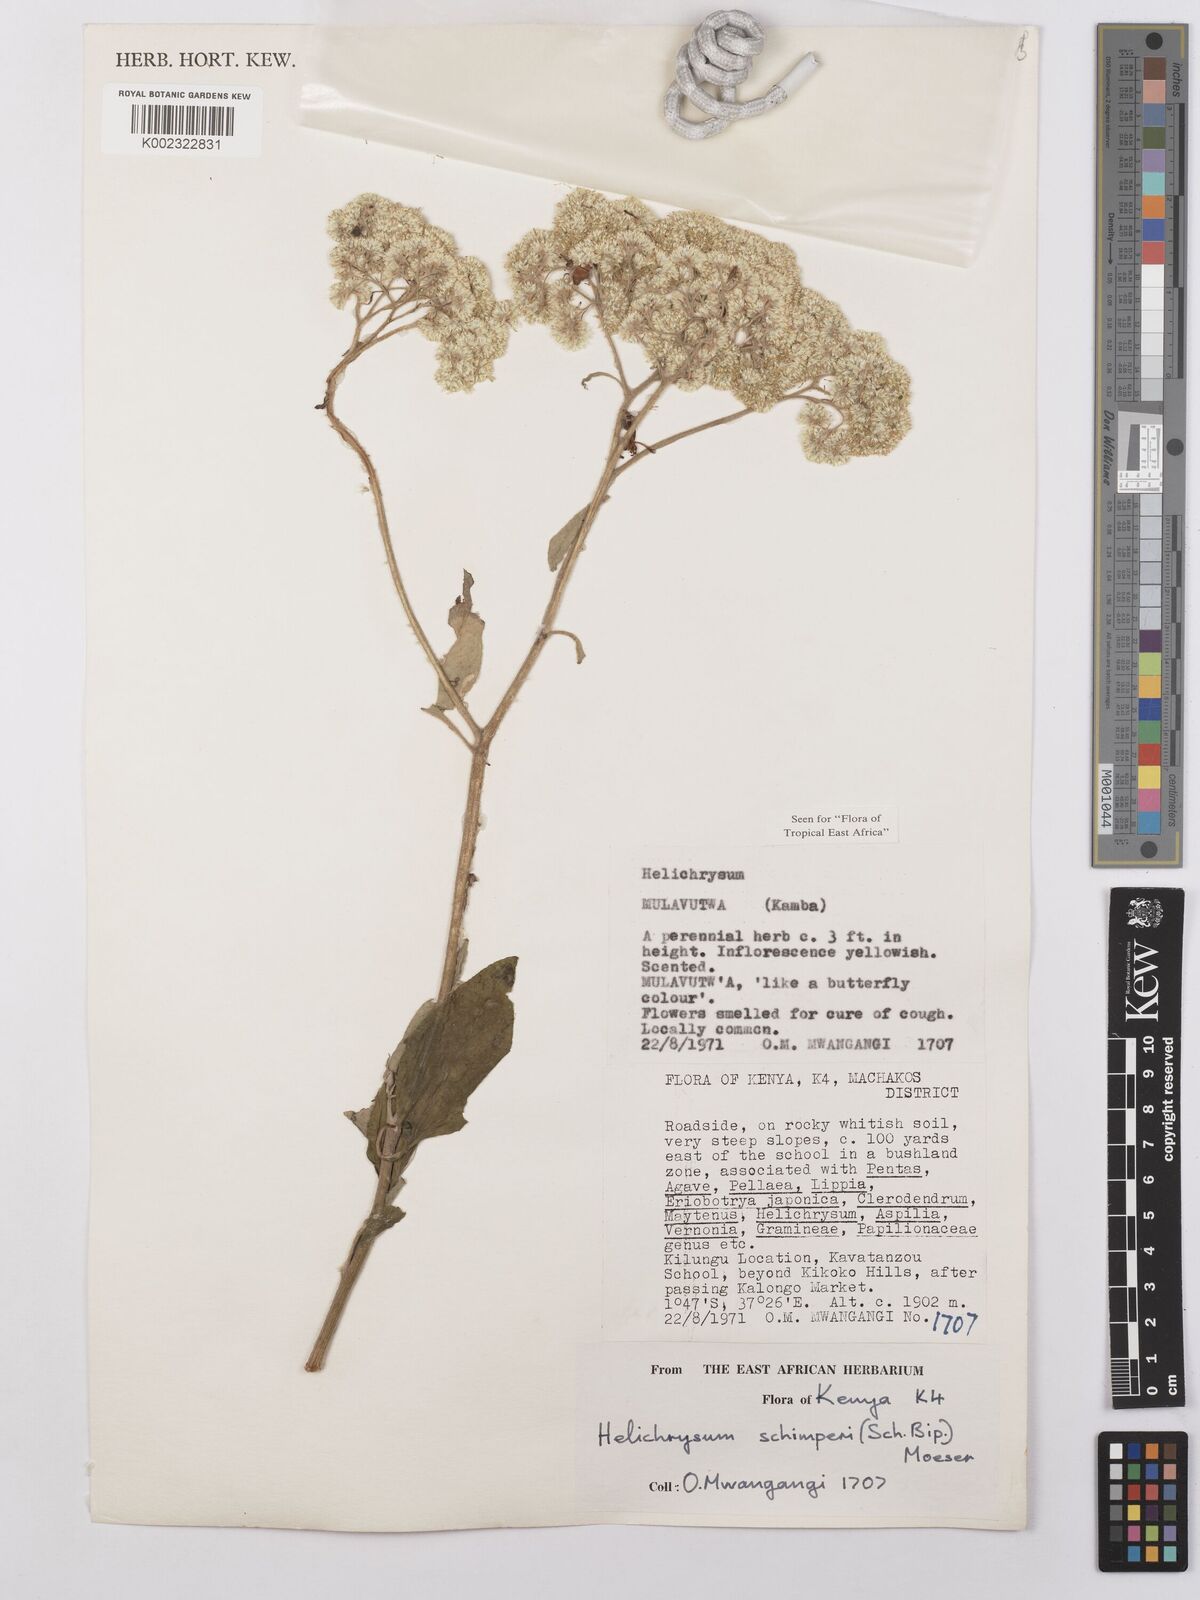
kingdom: Plantae
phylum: Tracheophyta
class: Magnoliopsida
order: Asterales
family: Asteraceae
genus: Helichrysum
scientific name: Helichrysum schimperi
